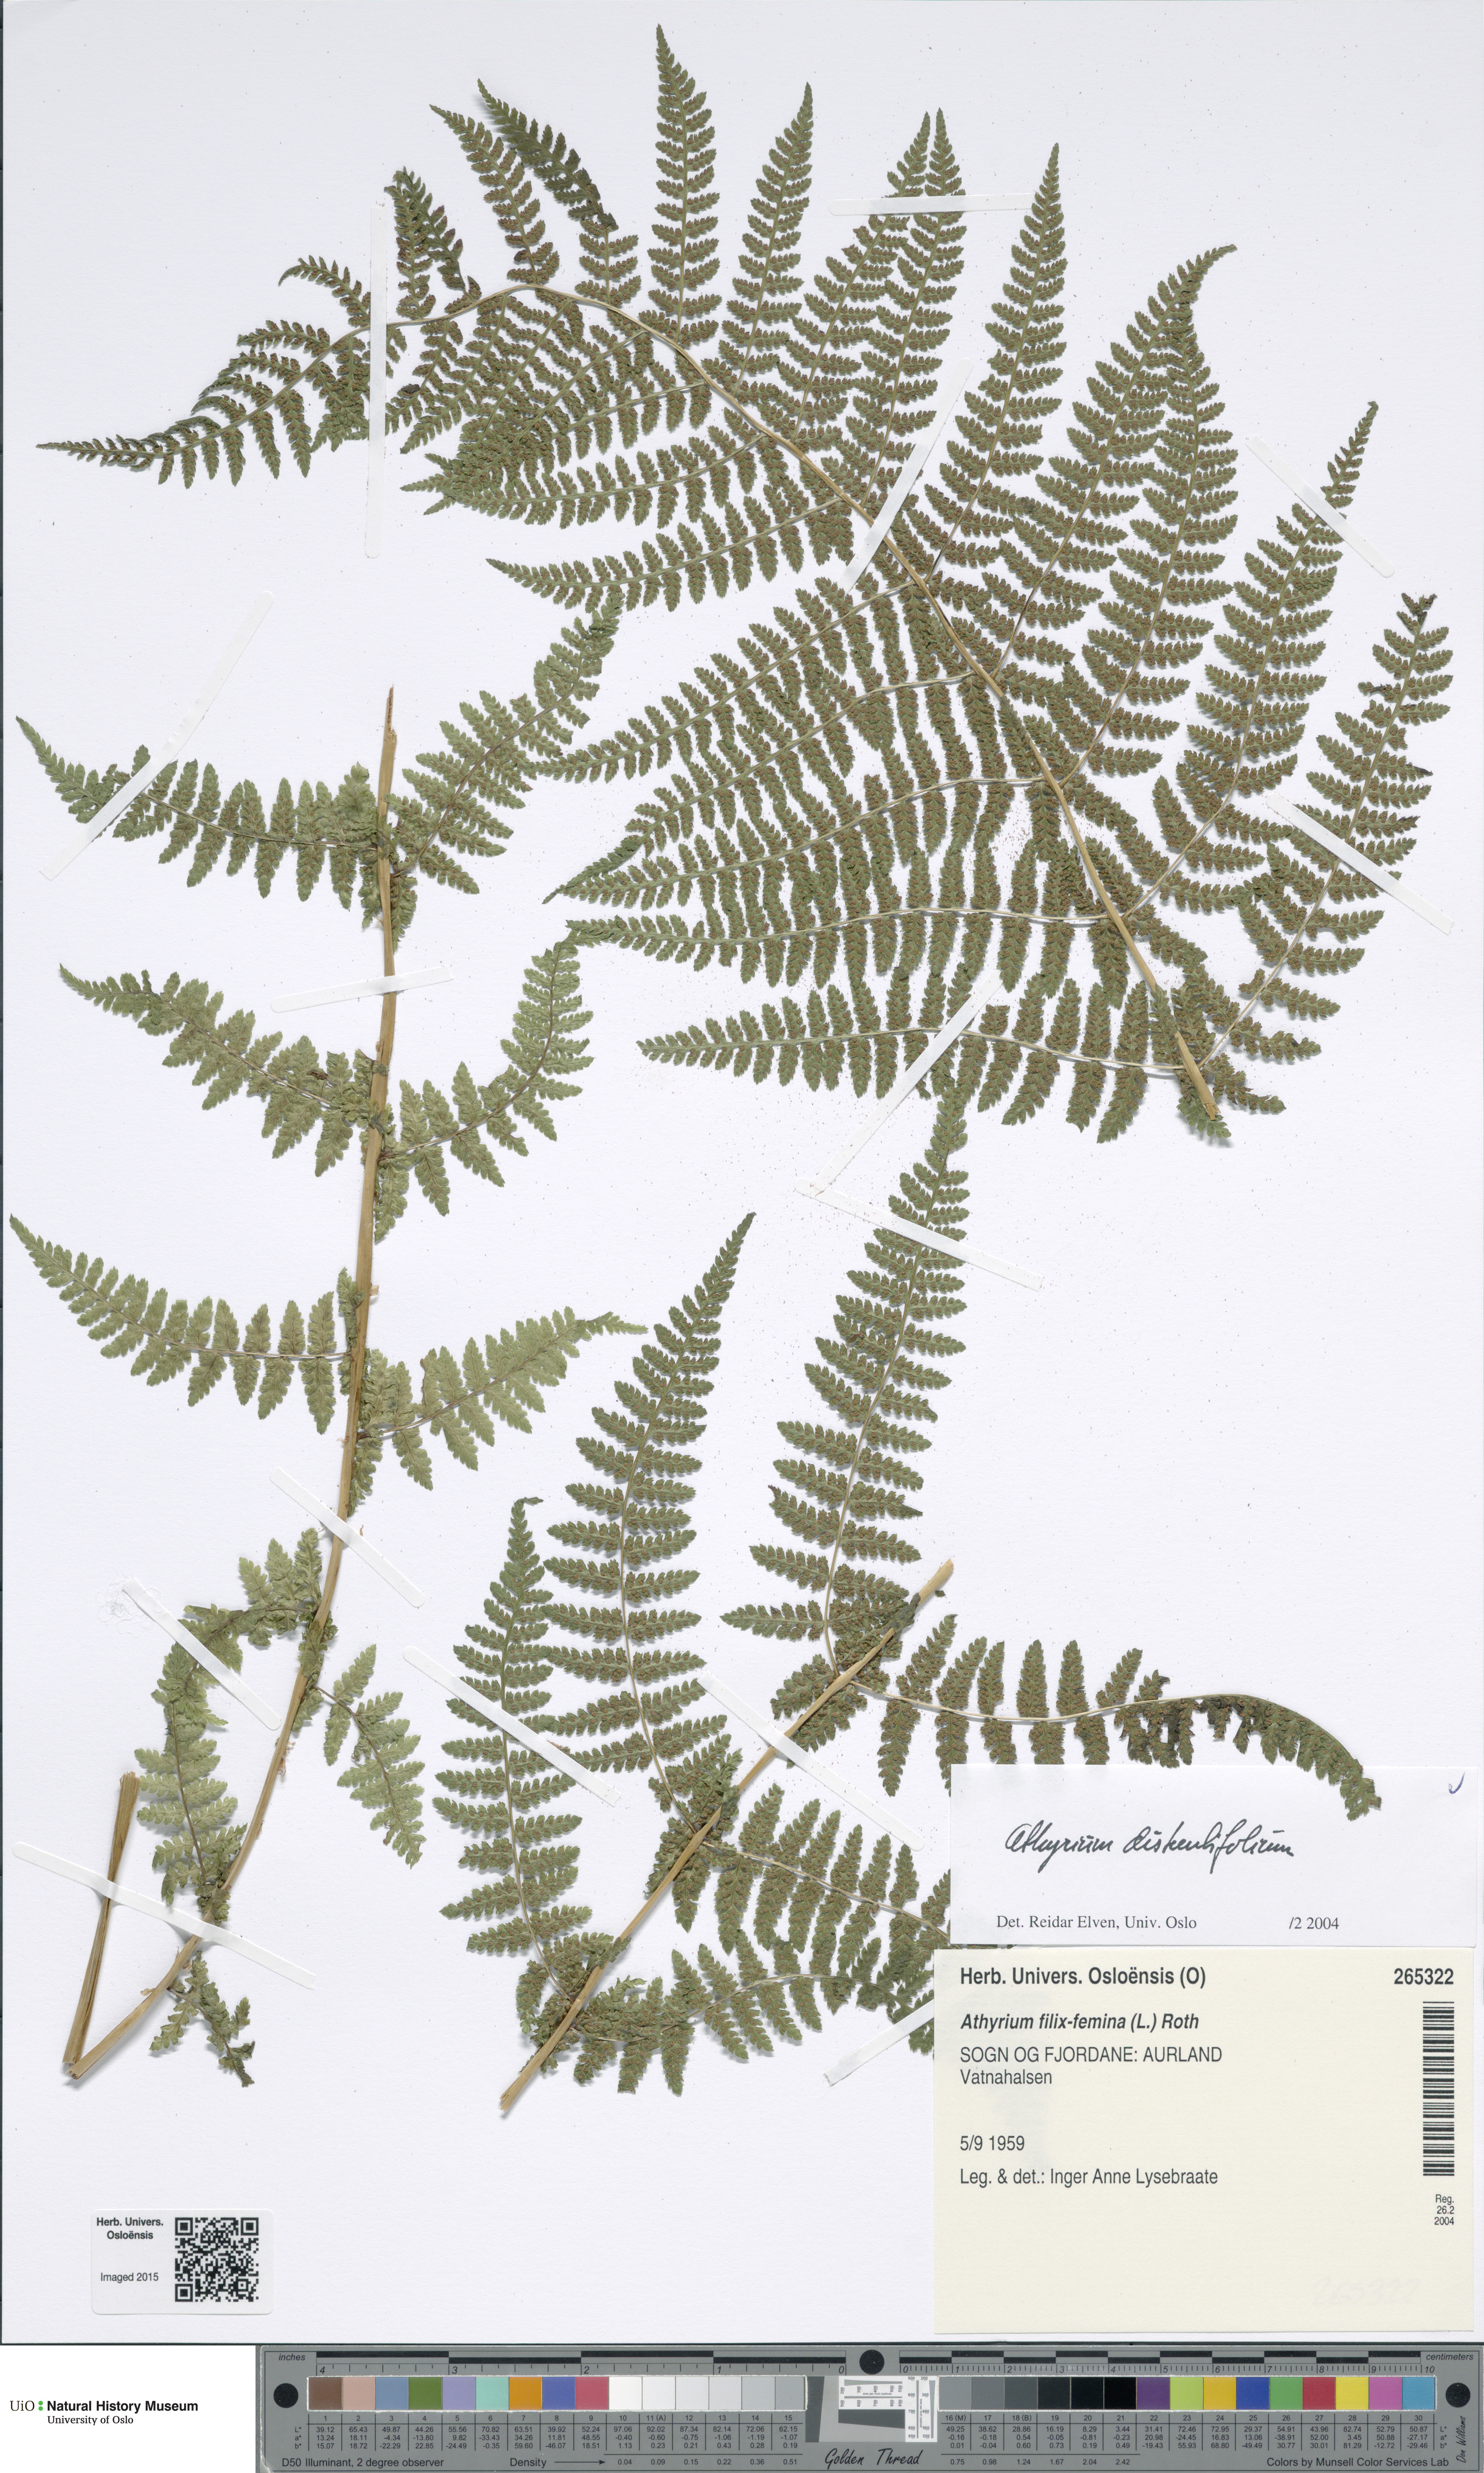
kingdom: Plantae
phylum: Tracheophyta
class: Polypodiopsida
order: Polypodiales
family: Athyriaceae
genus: Pseudathyrium
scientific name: Pseudathyrium alpestre
